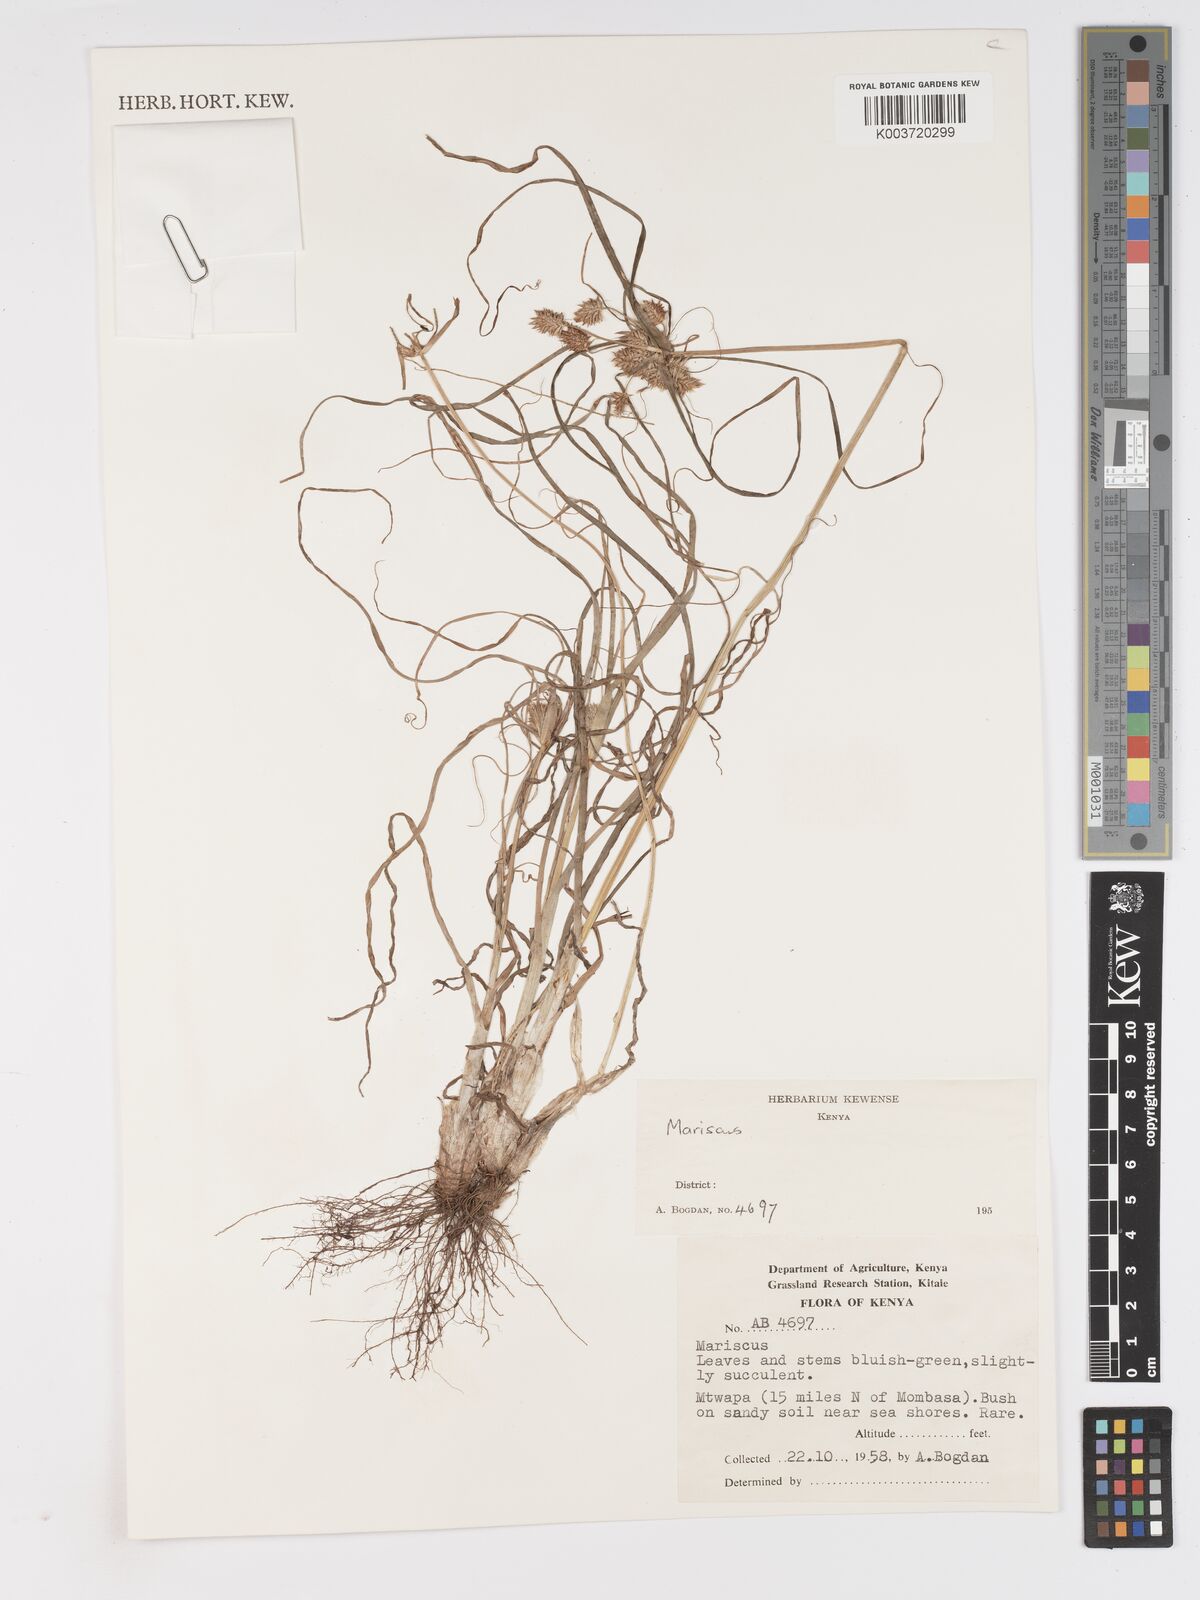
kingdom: Plantae
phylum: Tracheophyta
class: Liliopsida
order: Poales
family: Cyperaceae
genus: Cyperus
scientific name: Cyperus
